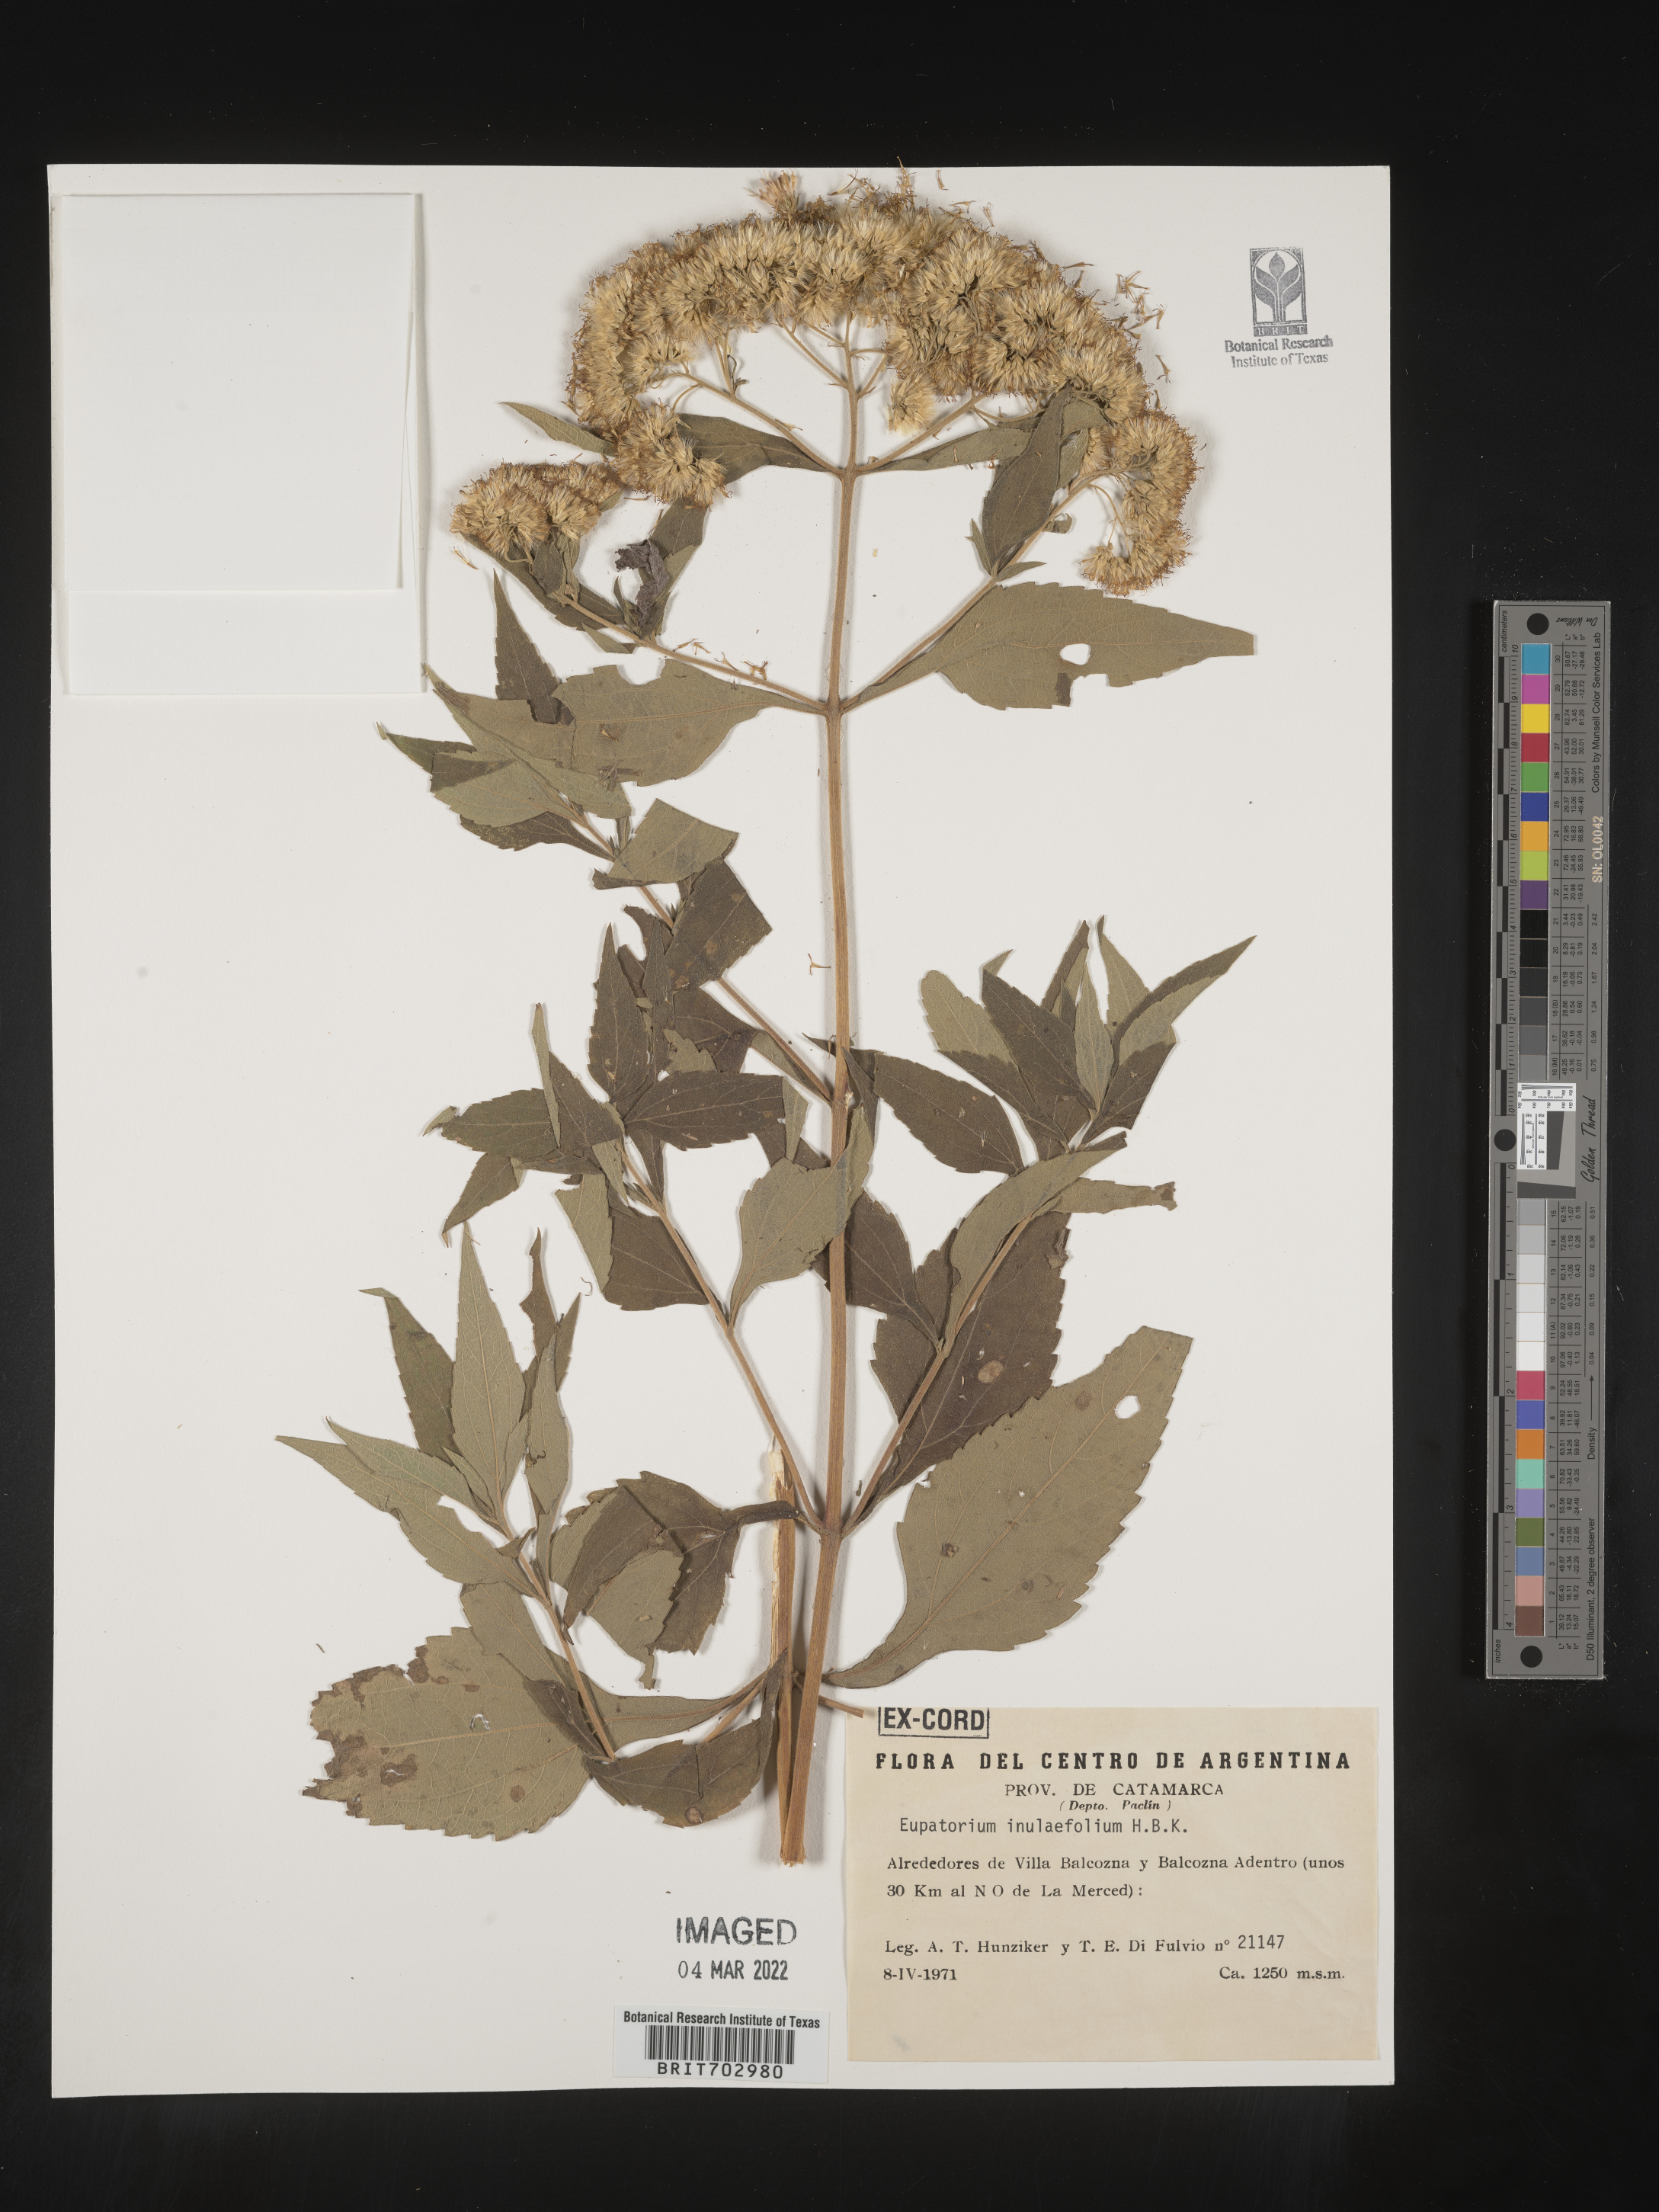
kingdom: Plantae
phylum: Tracheophyta
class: Magnoliopsida
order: Asterales
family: Asteraceae
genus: Eupatorium
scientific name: Eupatorium
